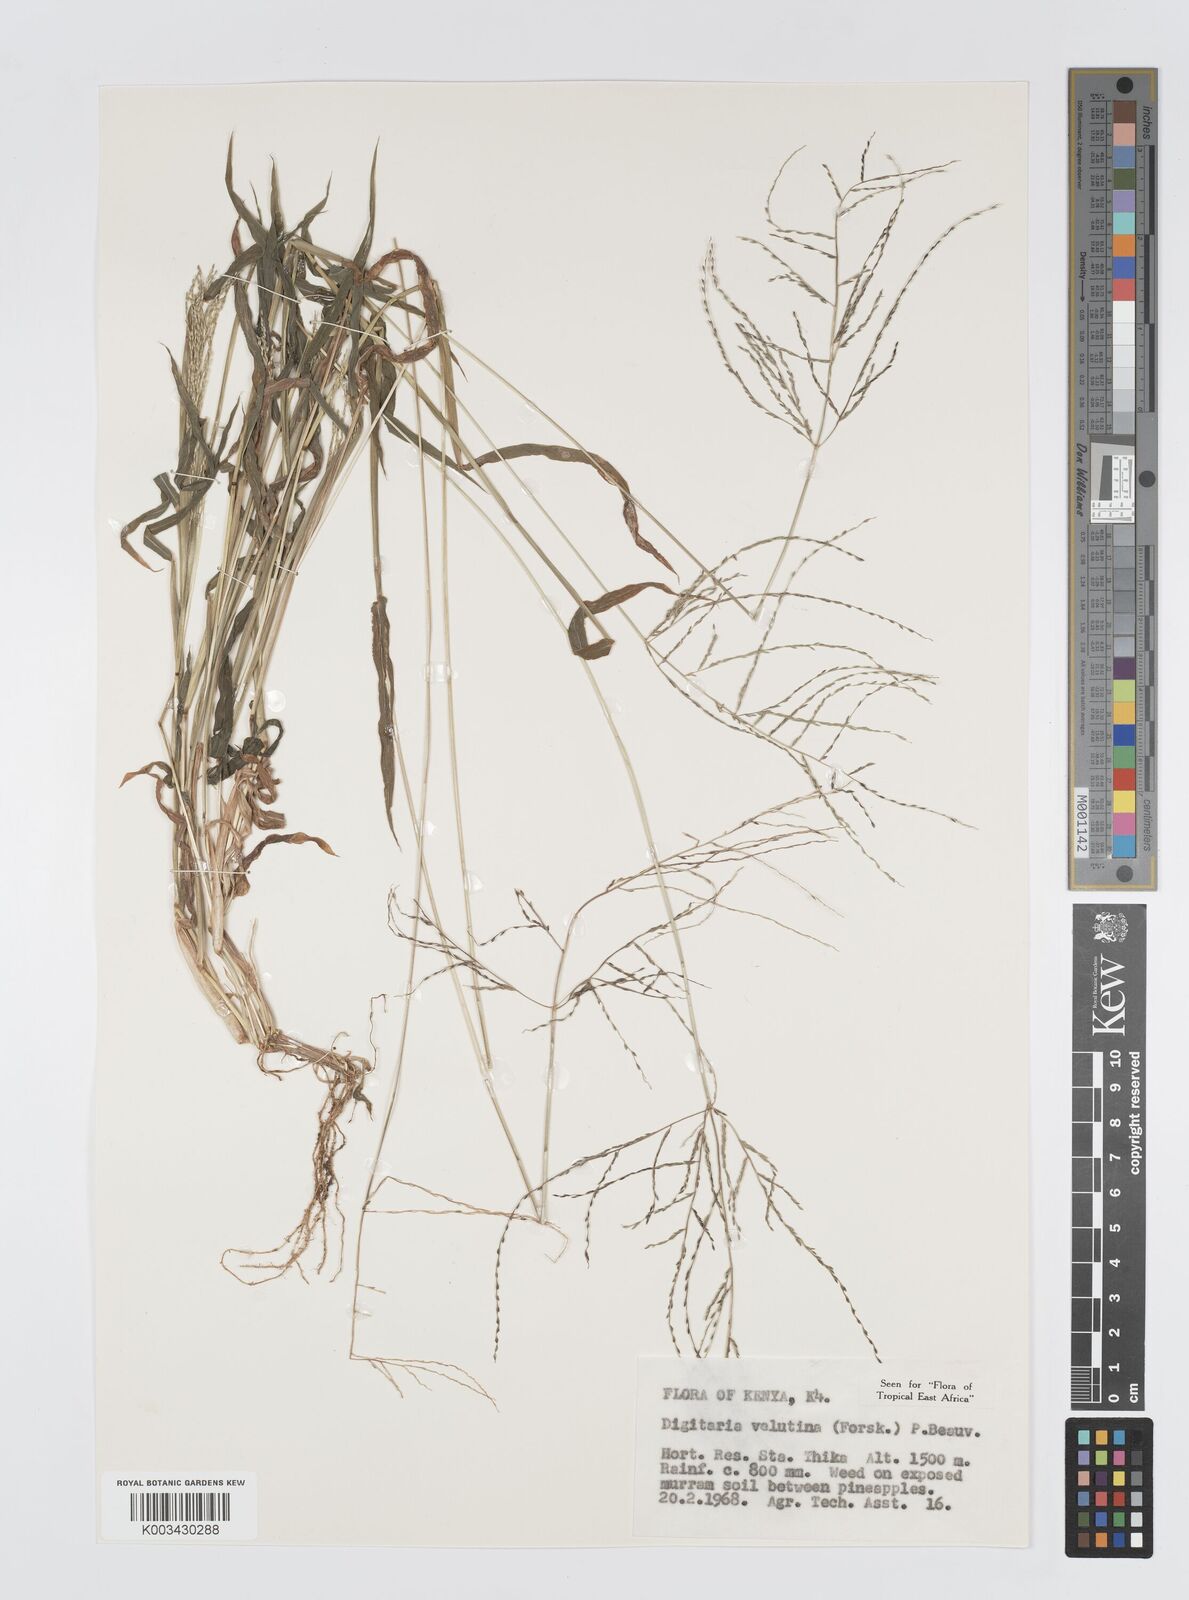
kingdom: Plantae
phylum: Tracheophyta
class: Liliopsida
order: Poales
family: Poaceae
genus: Digitaria
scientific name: Digitaria velutina
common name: Long-plume finger grass
